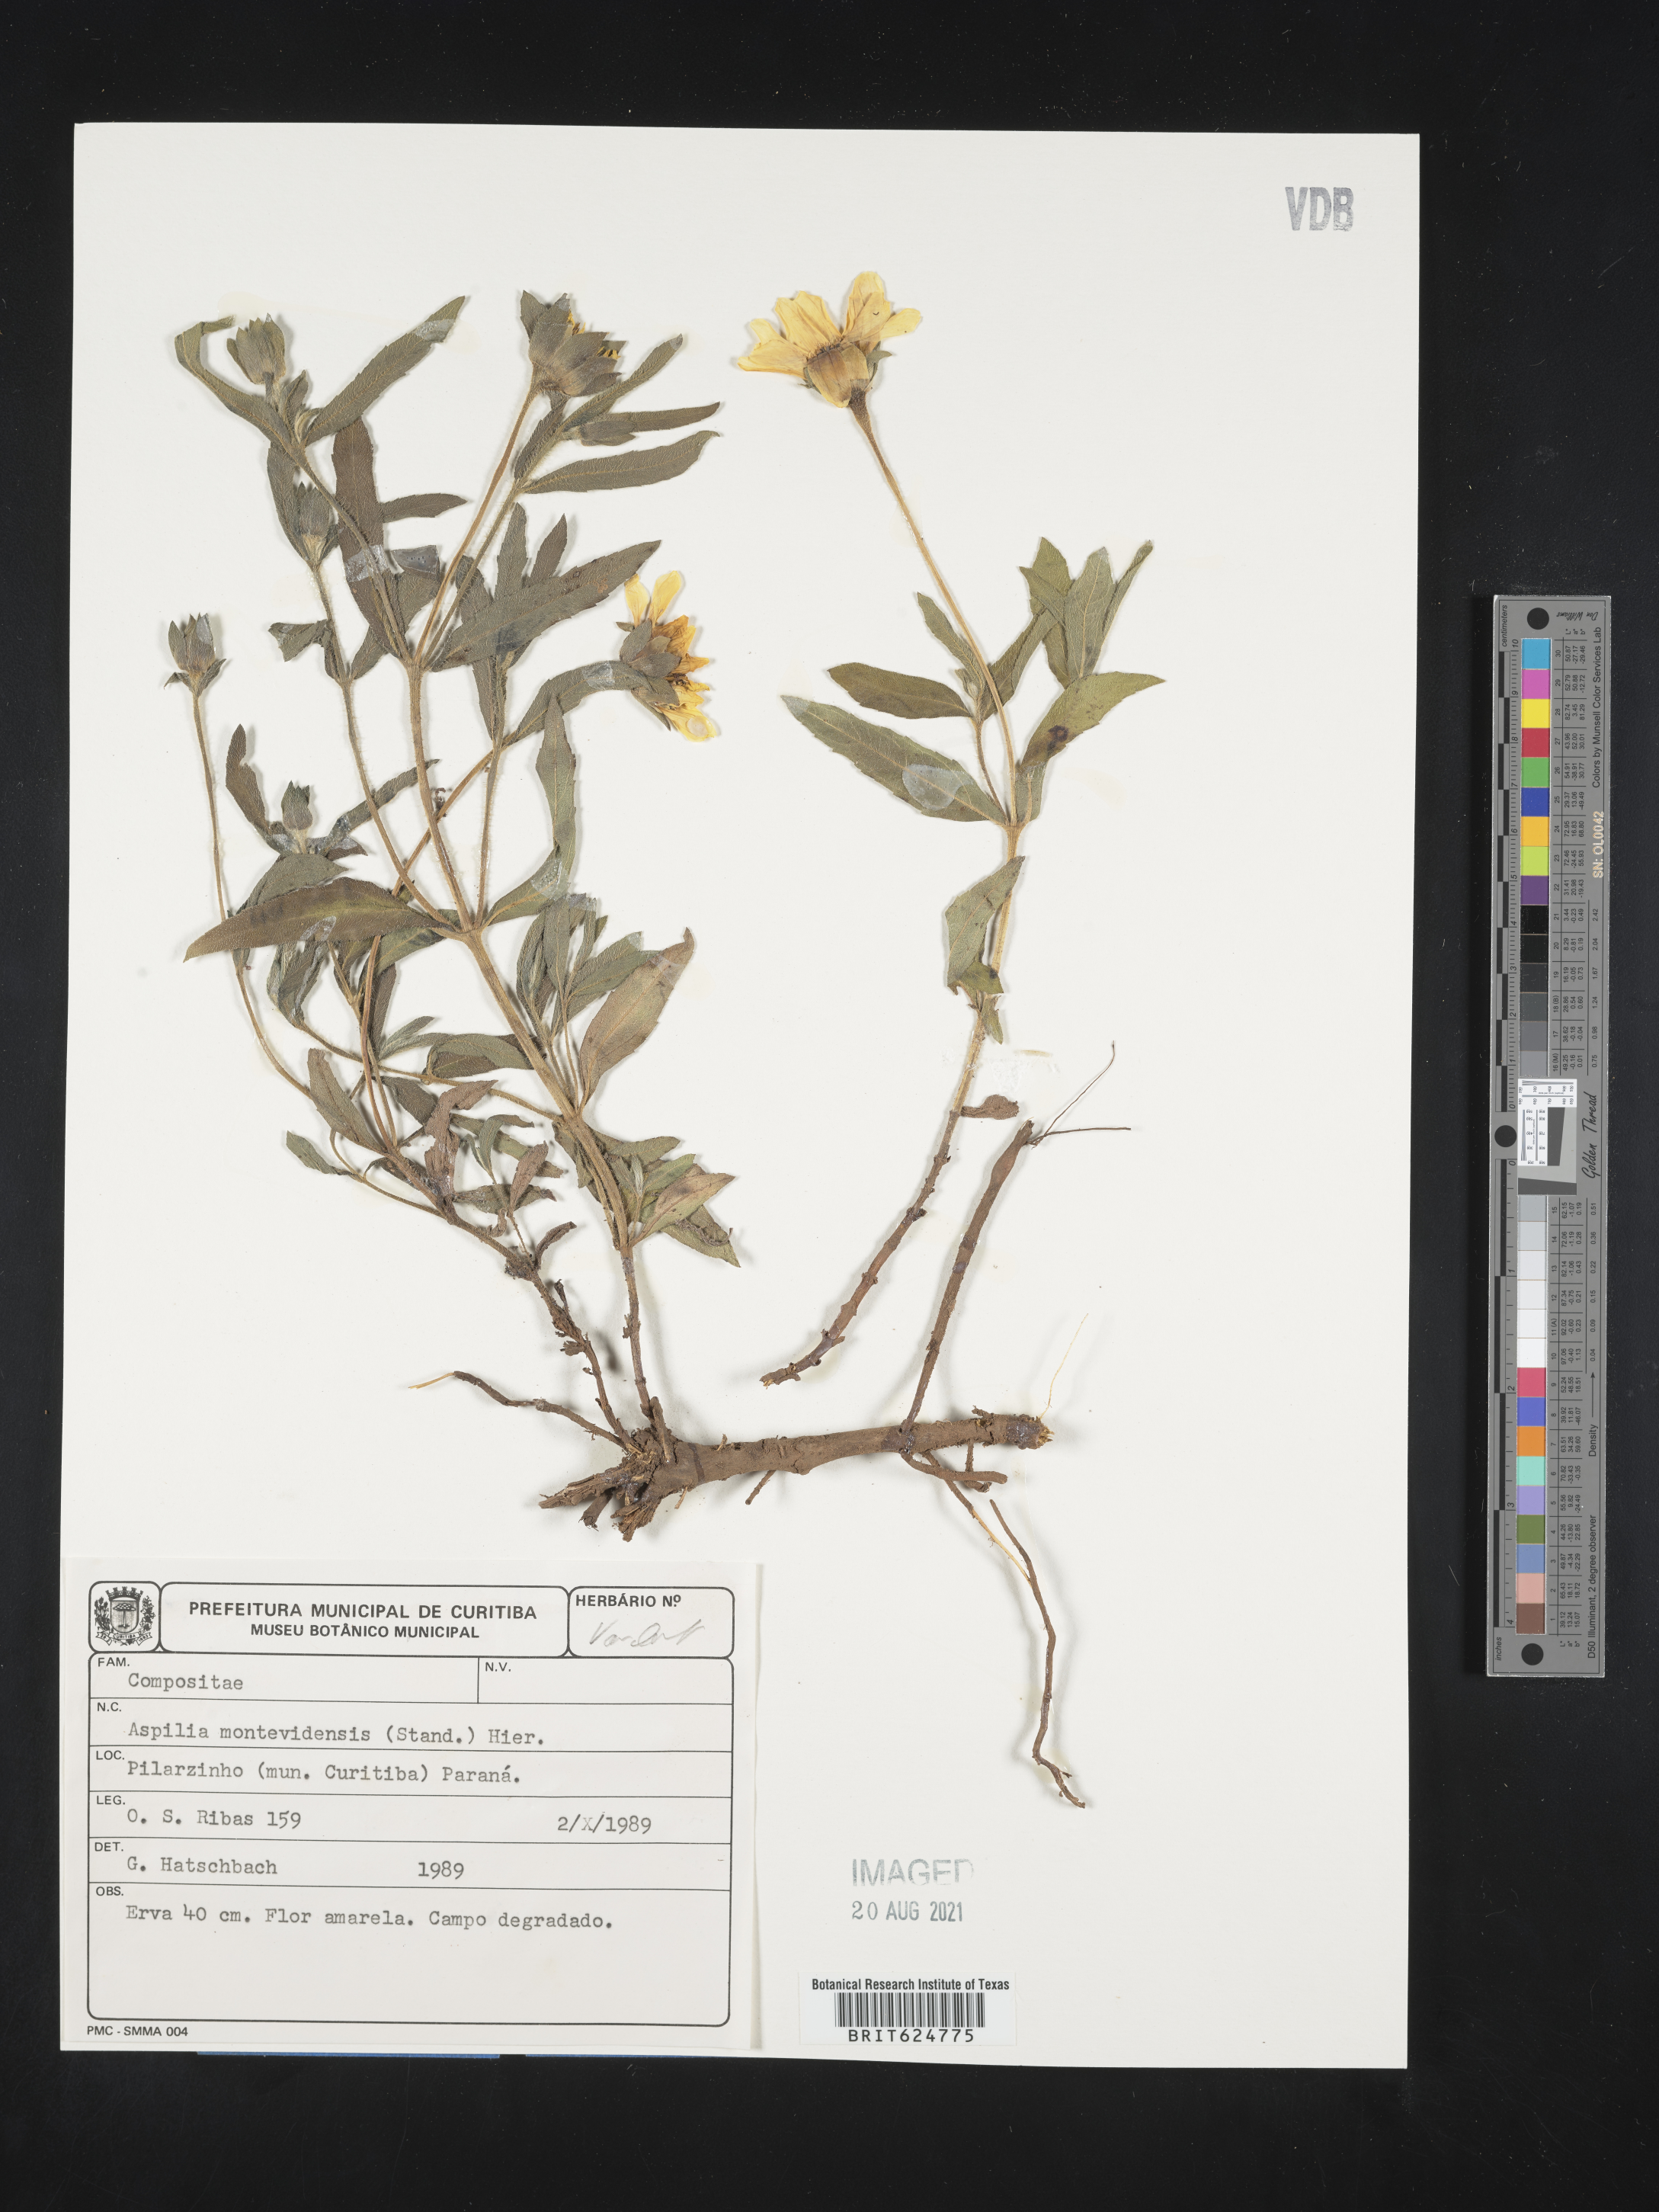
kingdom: Plantae
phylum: Tracheophyta
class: Magnoliopsida
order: Asterales
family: Asteraceae
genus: Wedelia
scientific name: Wedelia montevidensis
